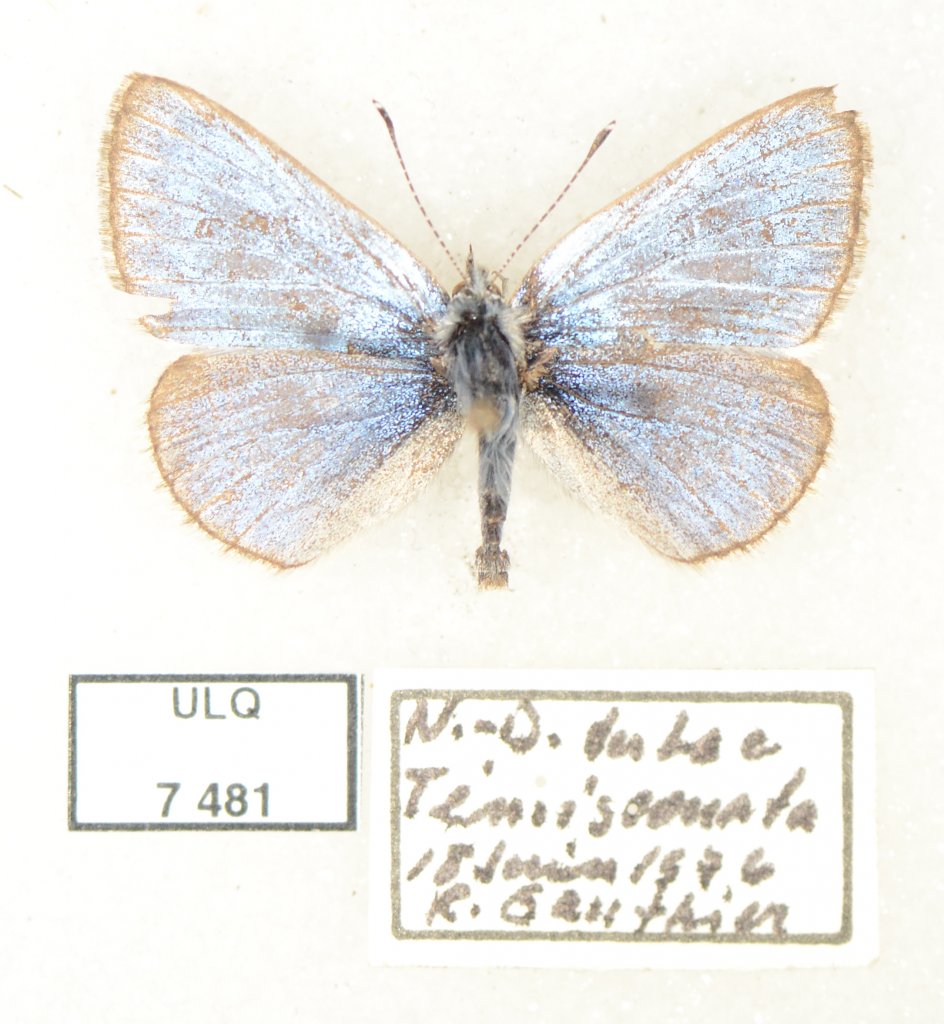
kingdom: Animalia
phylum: Arthropoda
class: Insecta
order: Lepidoptera
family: Lycaenidae
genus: Glaucopsyche
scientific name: Glaucopsyche lygdamus
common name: Silvery Blue
